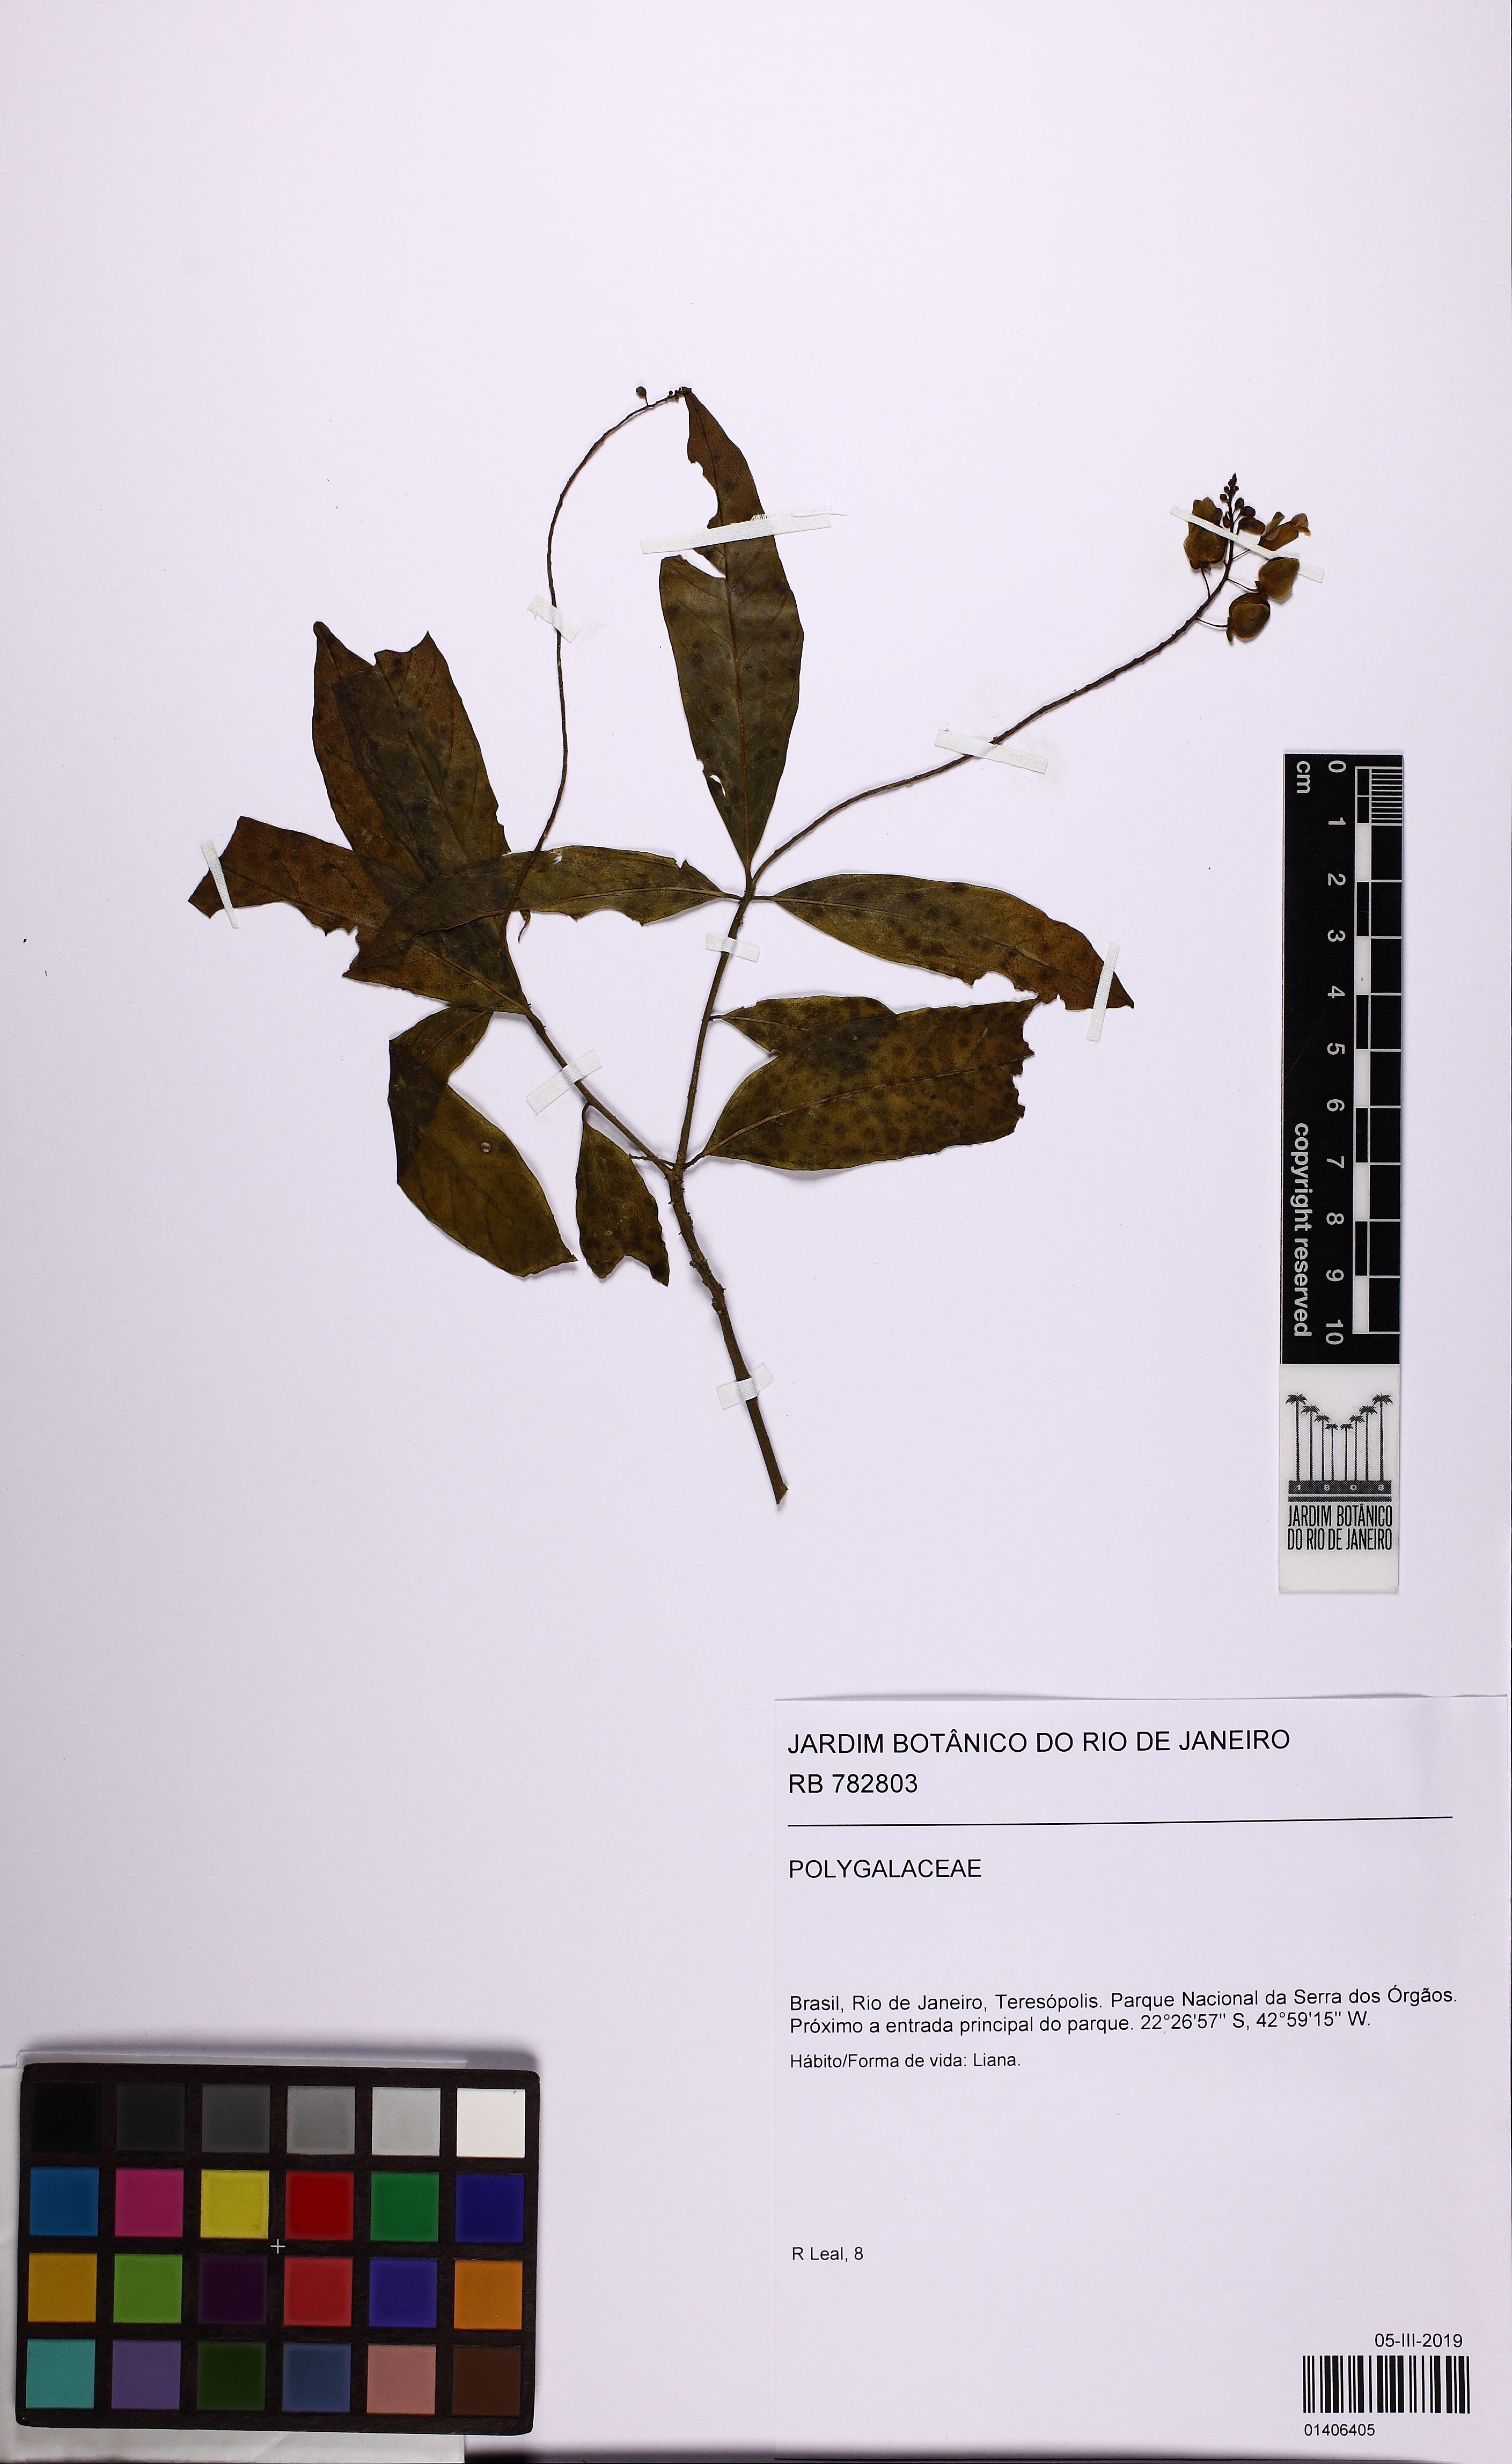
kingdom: Plantae
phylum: Tracheophyta
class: Magnoliopsida
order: Fabales
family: Polygalaceae
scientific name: Polygalaceae
